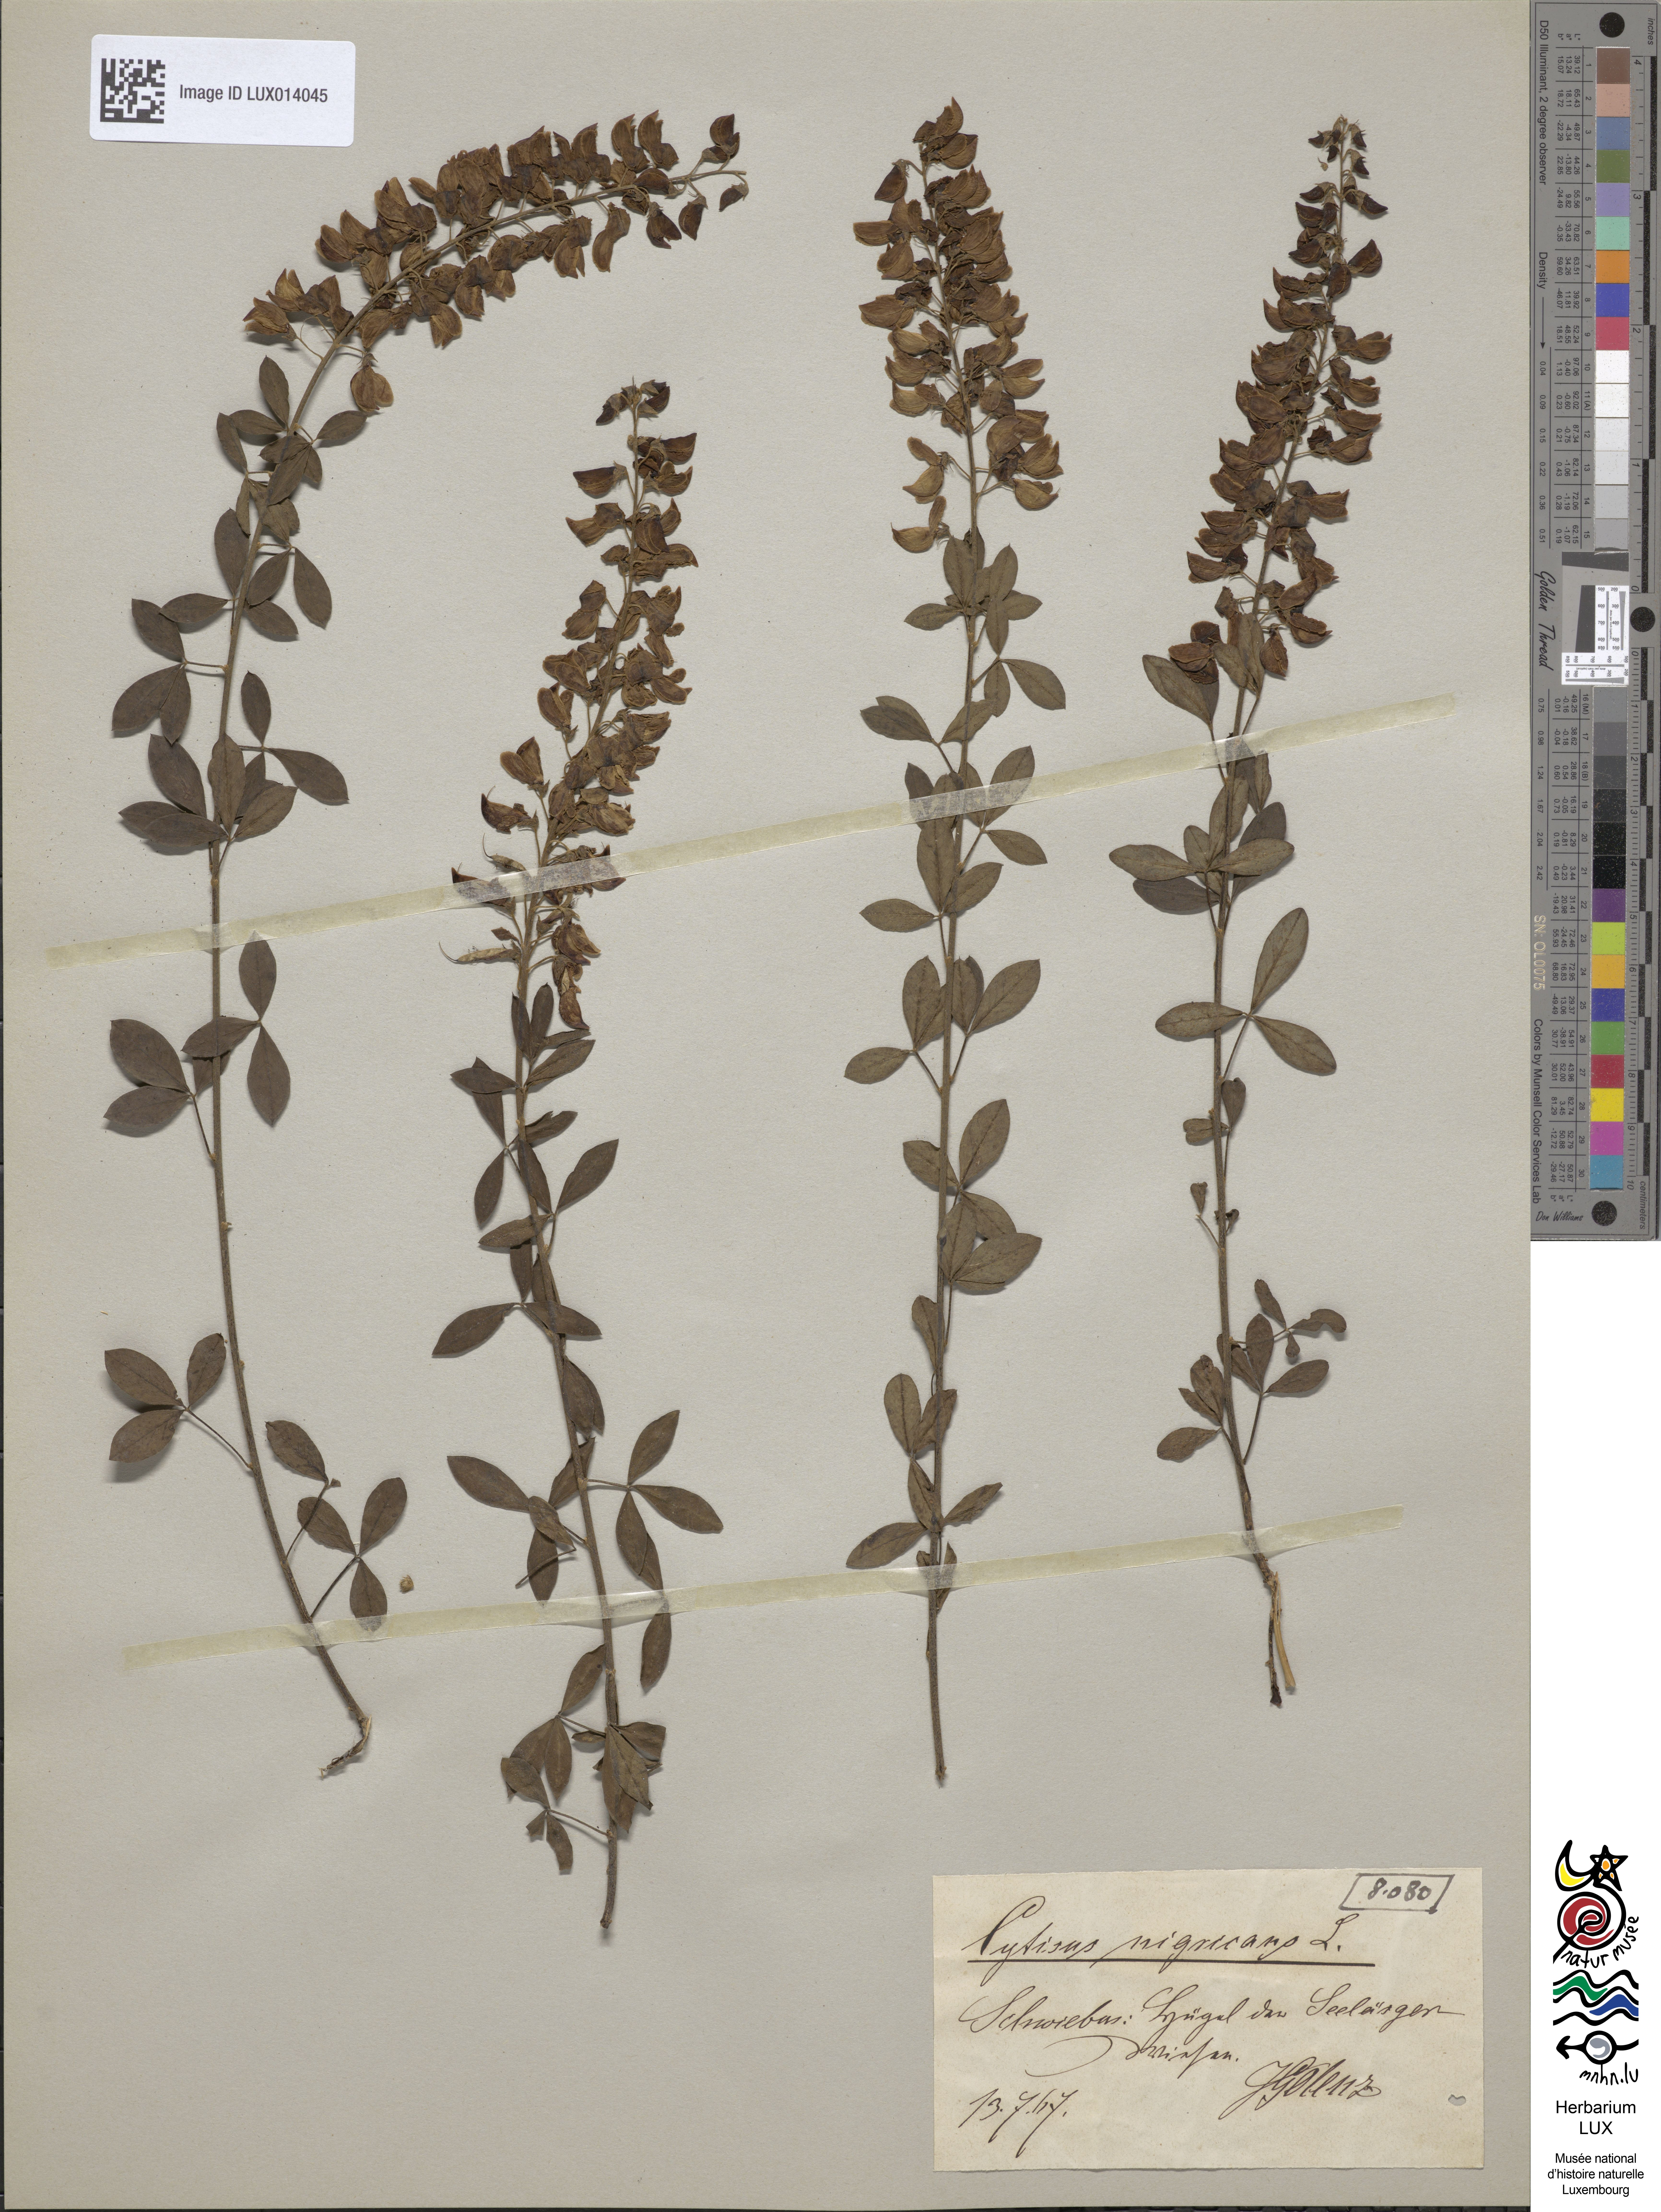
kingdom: Plantae
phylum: Tracheophyta
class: Magnoliopsida
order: Fabales
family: Fabaceae
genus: Cytisus
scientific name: Cytisus nigricans
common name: Black broom
